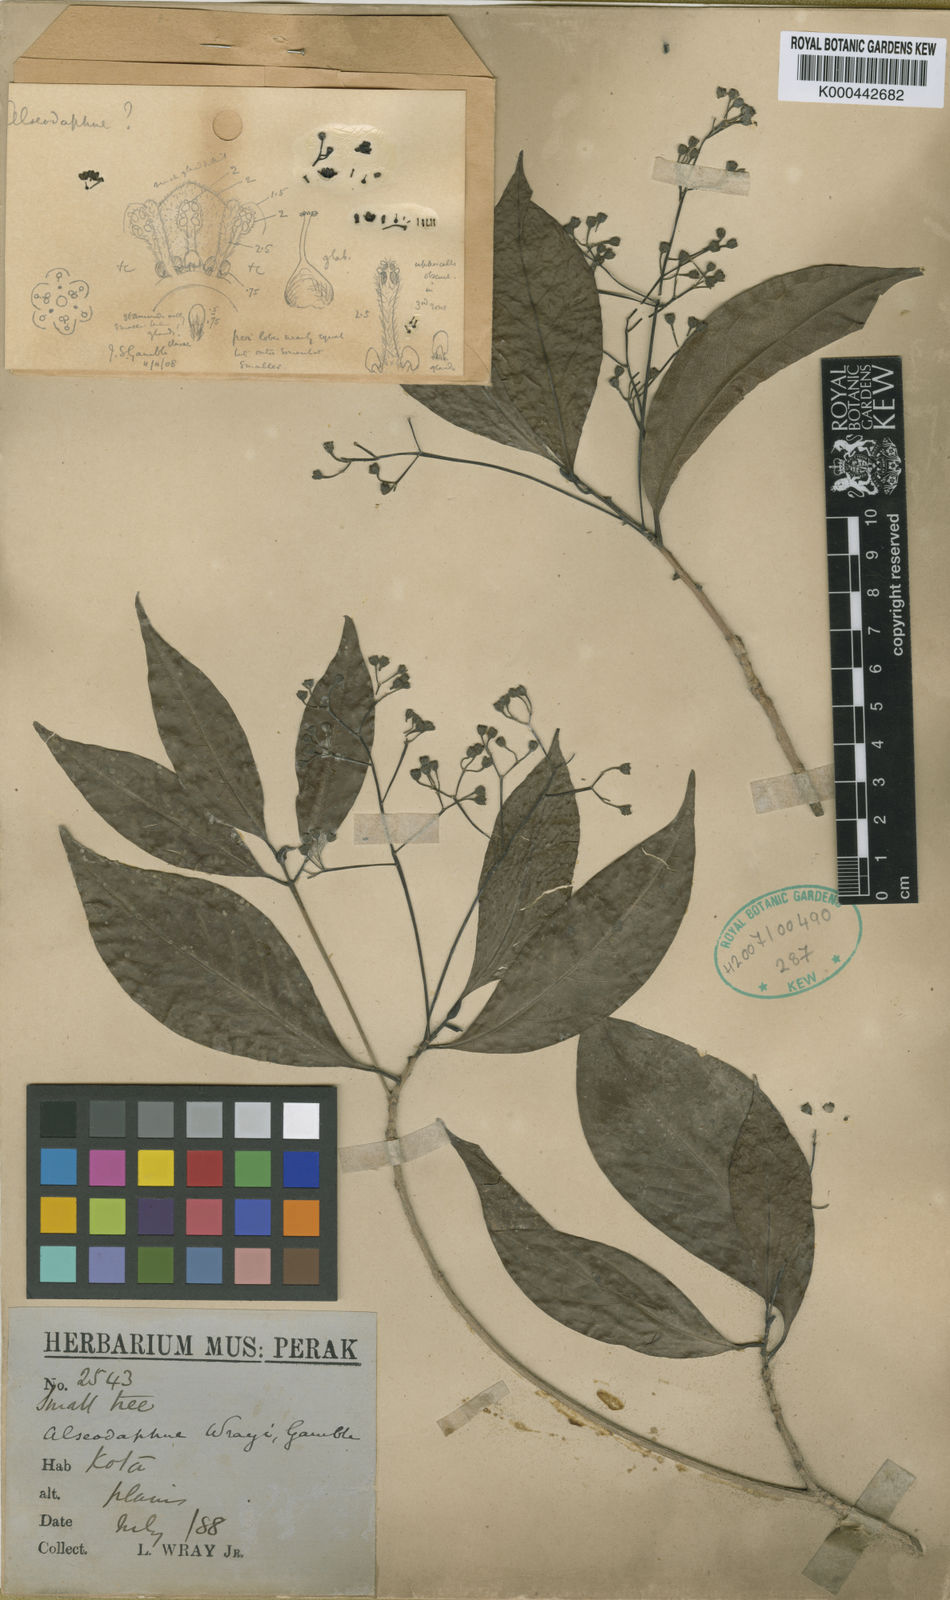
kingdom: Plantae
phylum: Tracheophyta
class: Magnoliopsida
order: Laurales
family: Lauraceae
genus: Alseodaphne
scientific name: Alseodaphne wrayi
